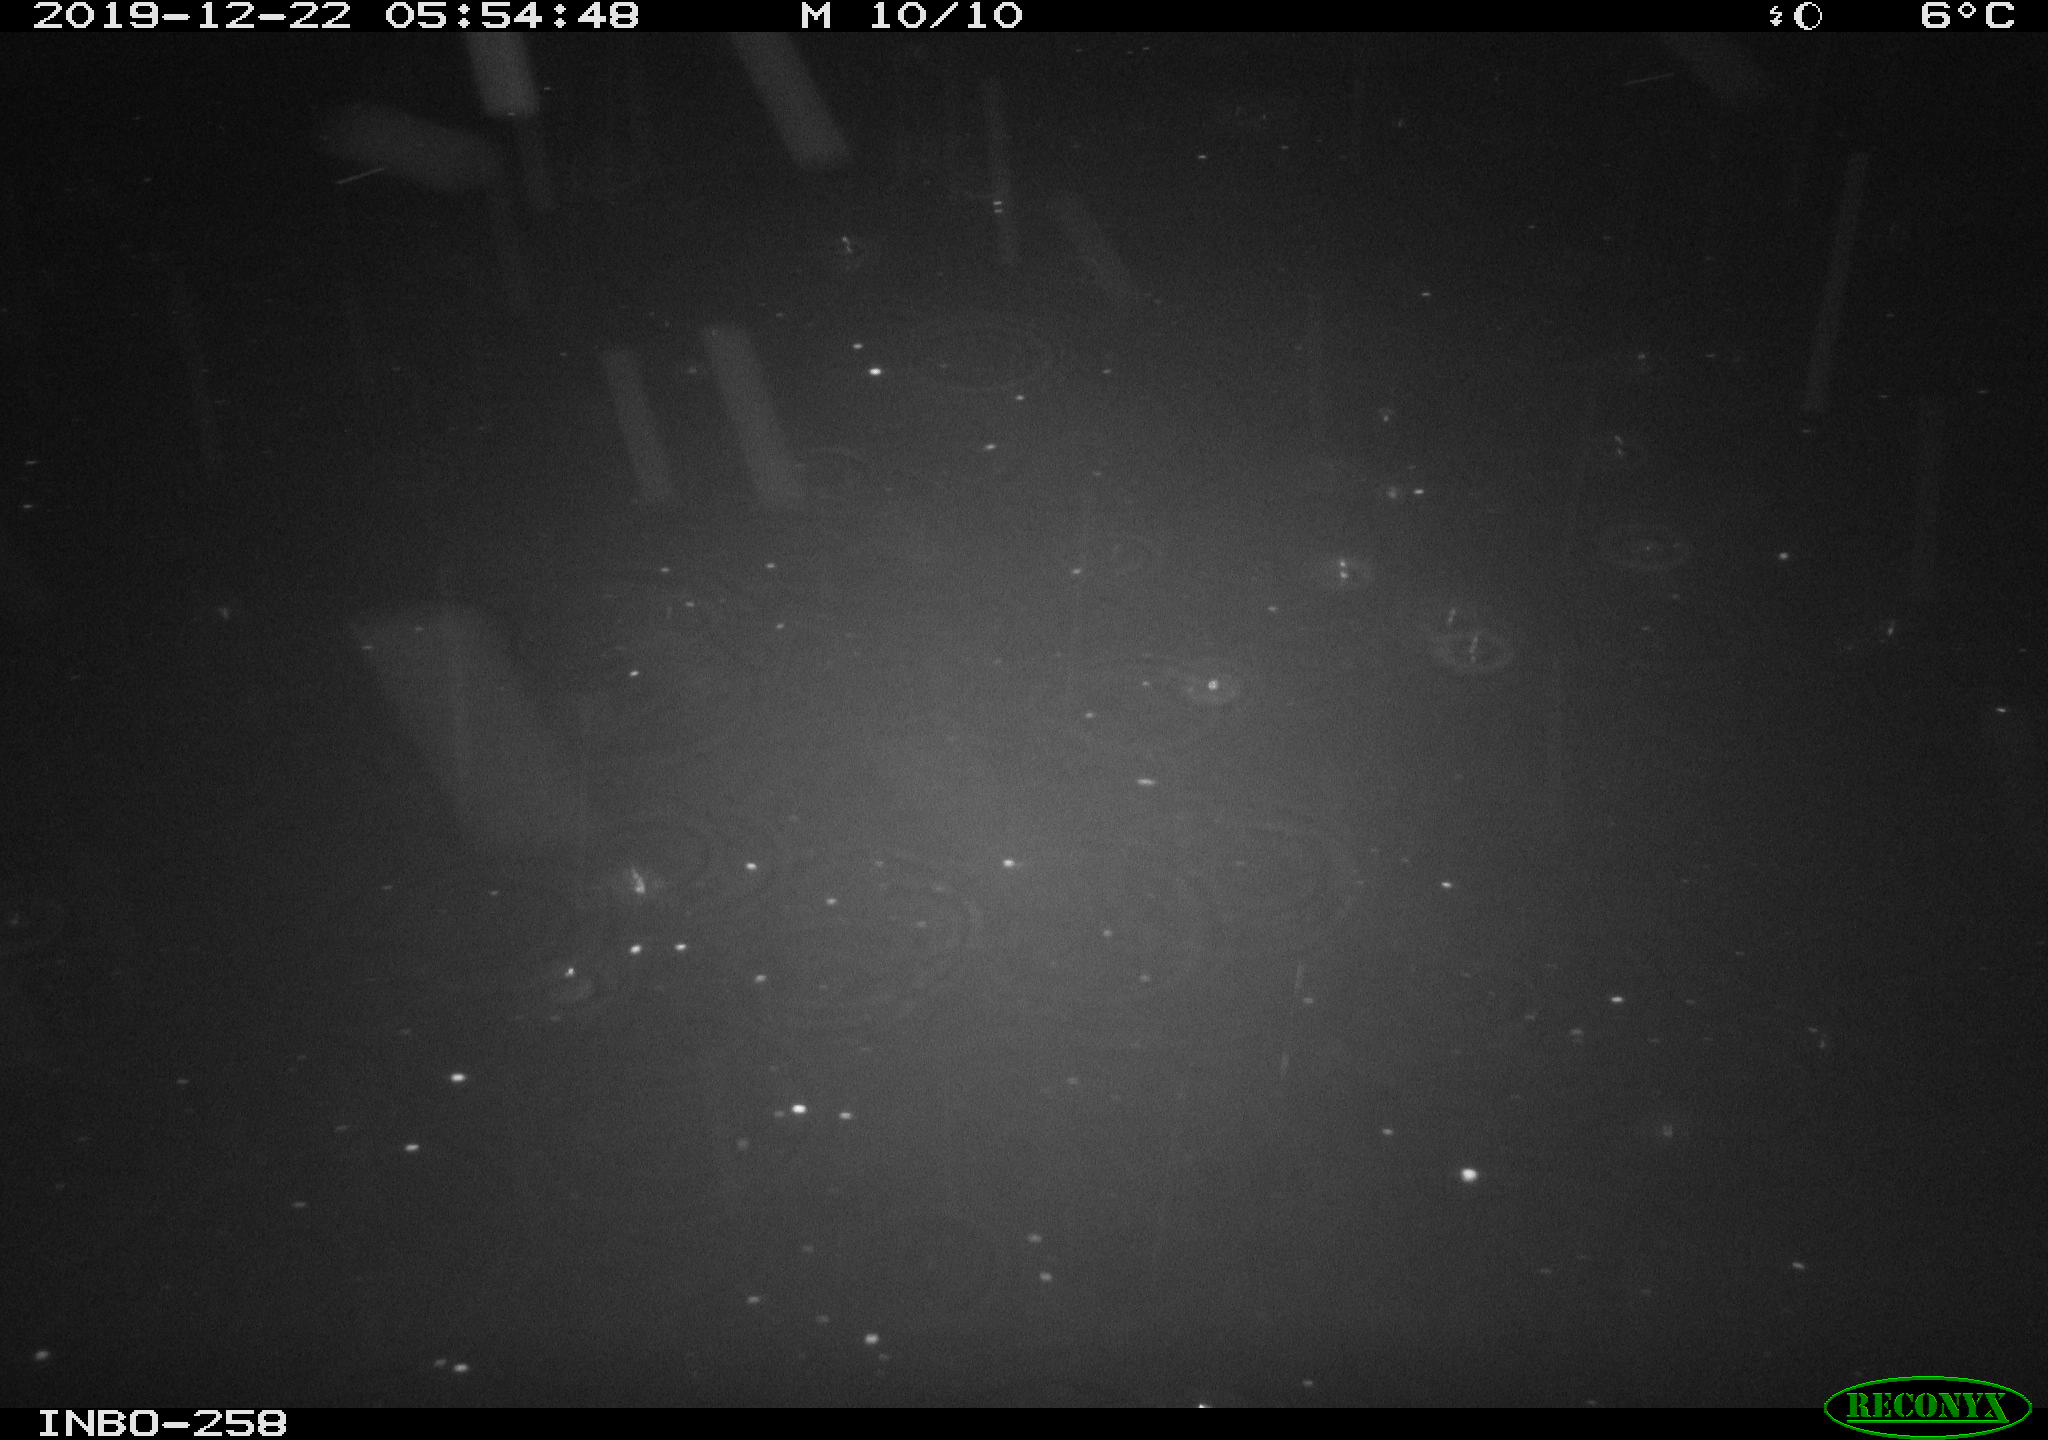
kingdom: Animalia
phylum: Chordata
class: Aves
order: Anseriformes
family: Anatidae
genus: Anas
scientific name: Anas platyrhynchos
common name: Mallard
